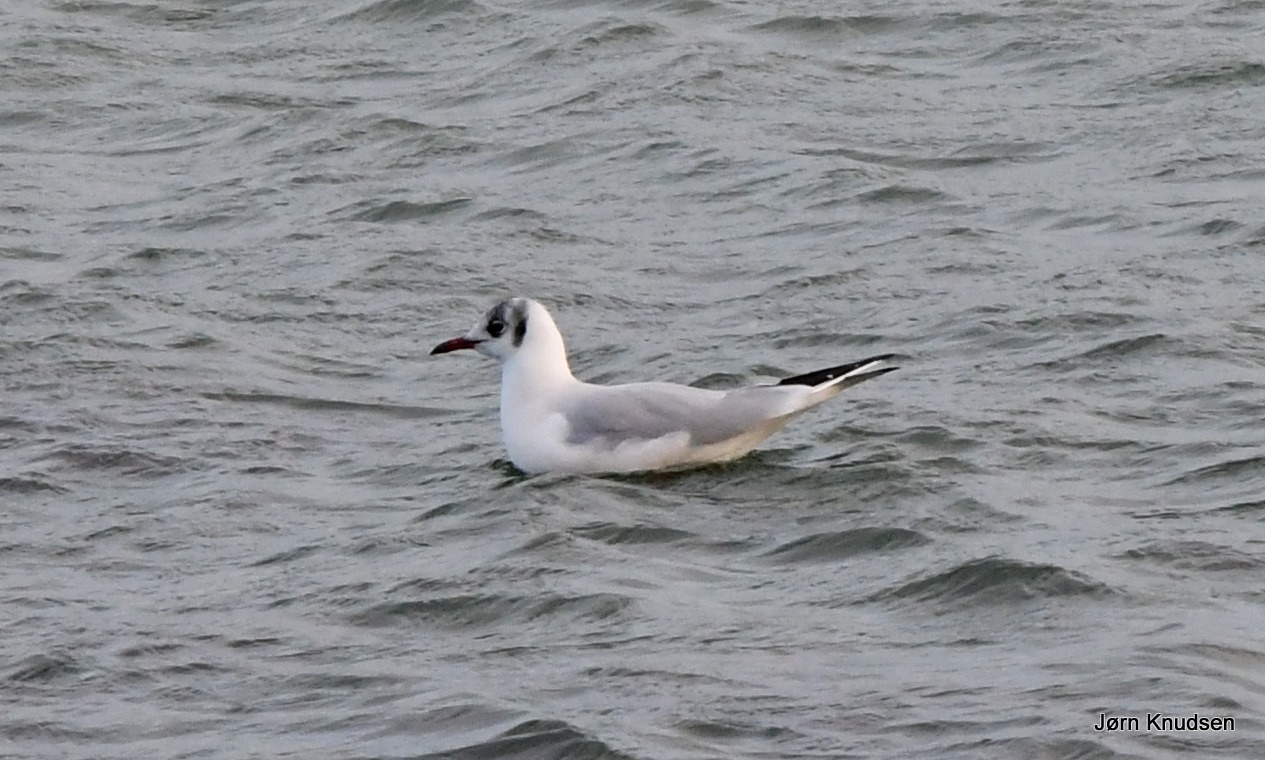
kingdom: Animalia
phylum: Chordata
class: Aves
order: Charadriiformes
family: Laridae
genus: Chroicocephalus
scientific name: Chroicocephalus ridibundus
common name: Hættemåge
